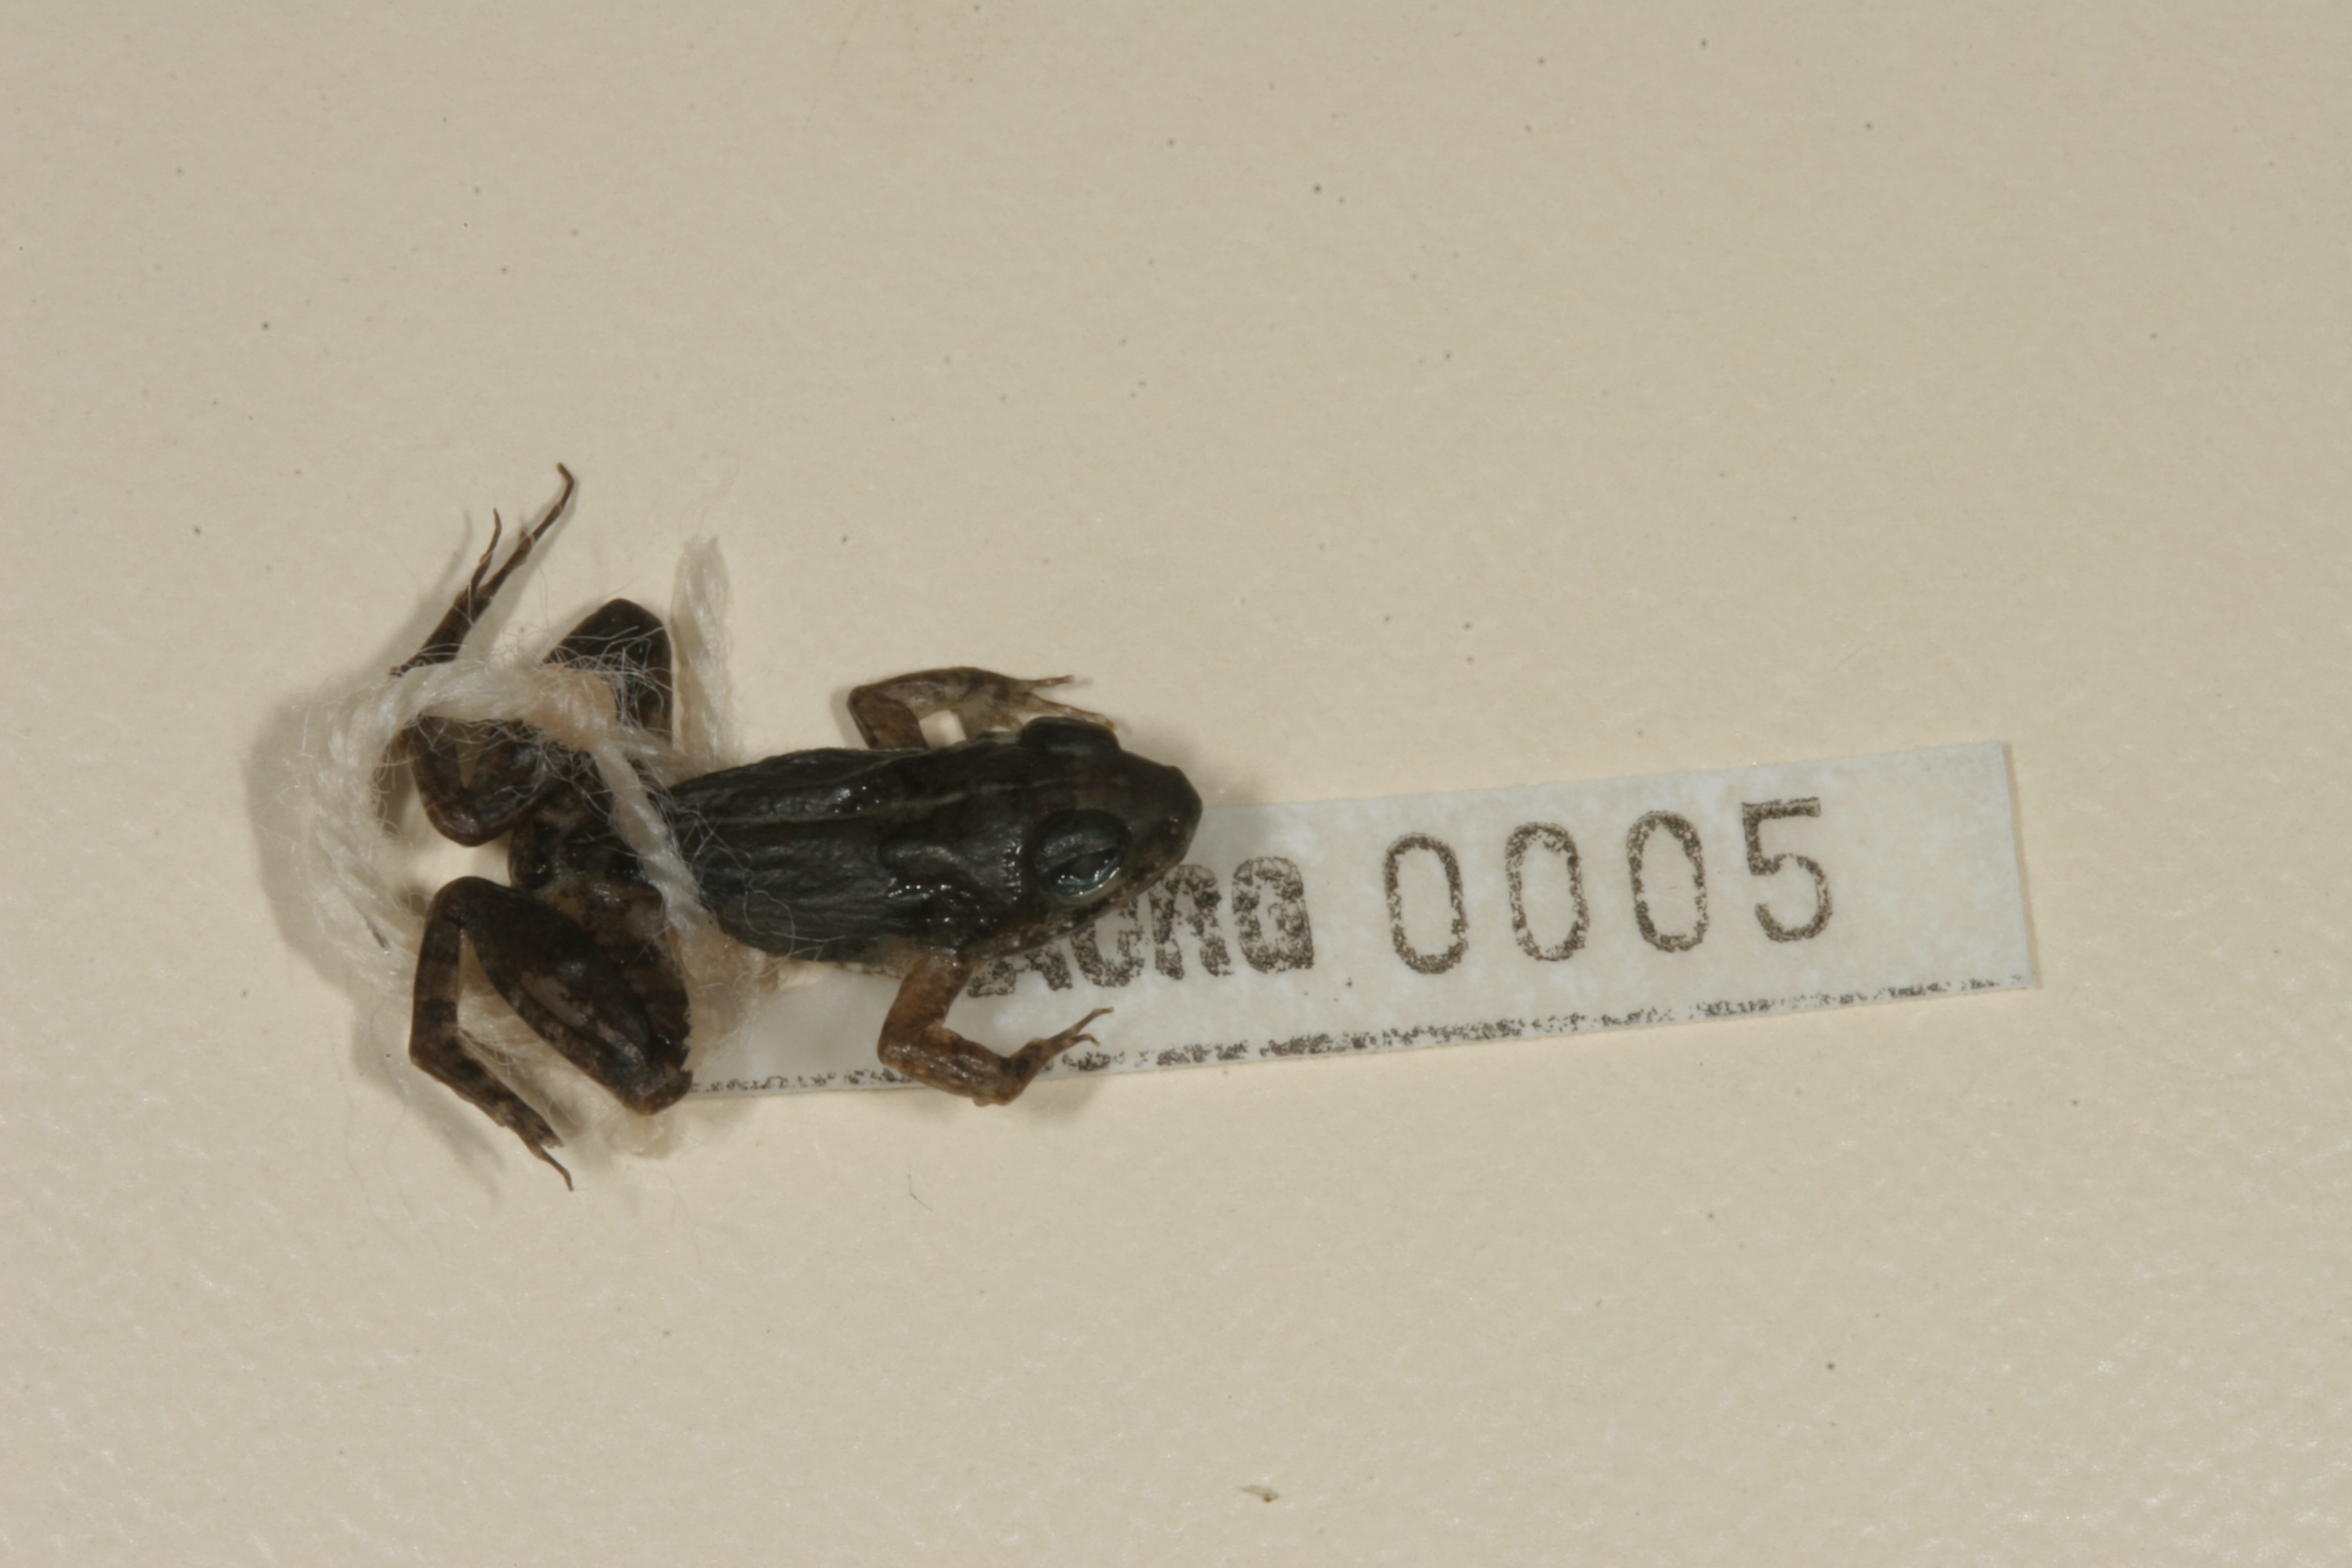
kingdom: Animalia
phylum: Chordata
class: Amphibia
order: Anura
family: Phrynobatrachidae
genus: Phrynobatrachus
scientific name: Phrynobatrachus natalensis
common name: Snoring puddle frog
